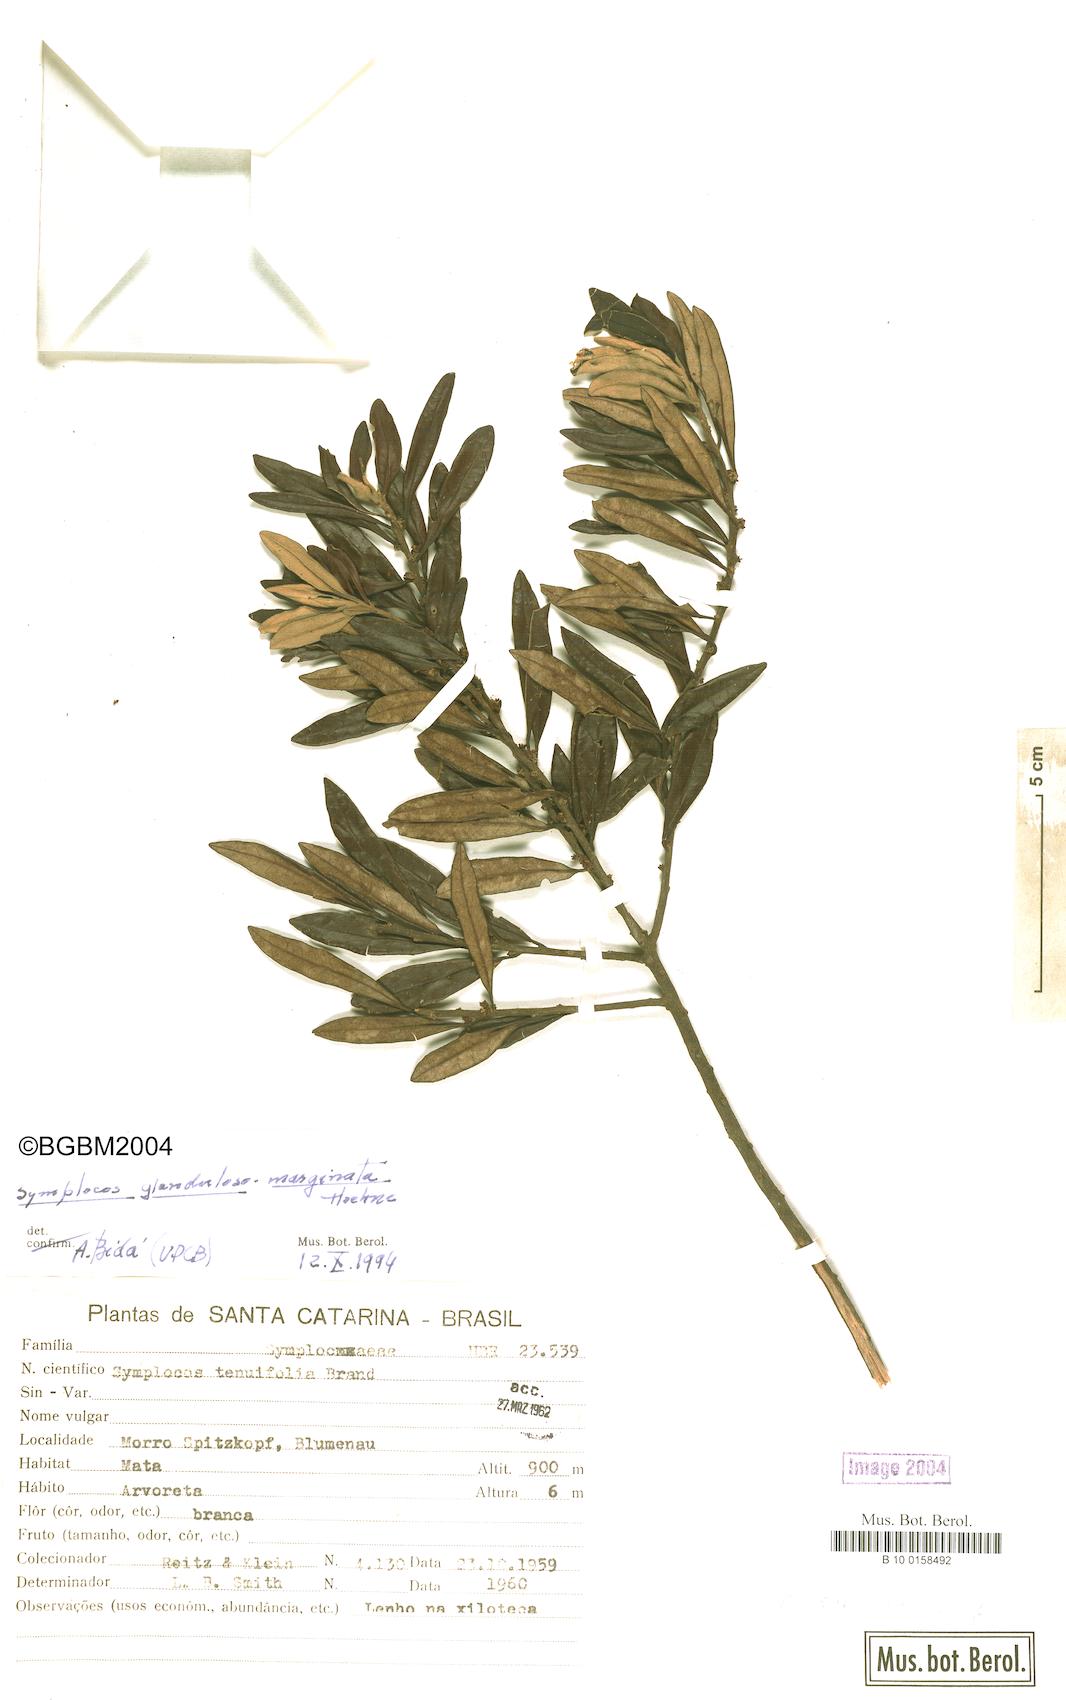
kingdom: Plantae
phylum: Tracheophyta
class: Magnoliopsida
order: Ericales
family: Symplocaceae
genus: Symplocos
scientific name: Symplocos glandulosomarginata
